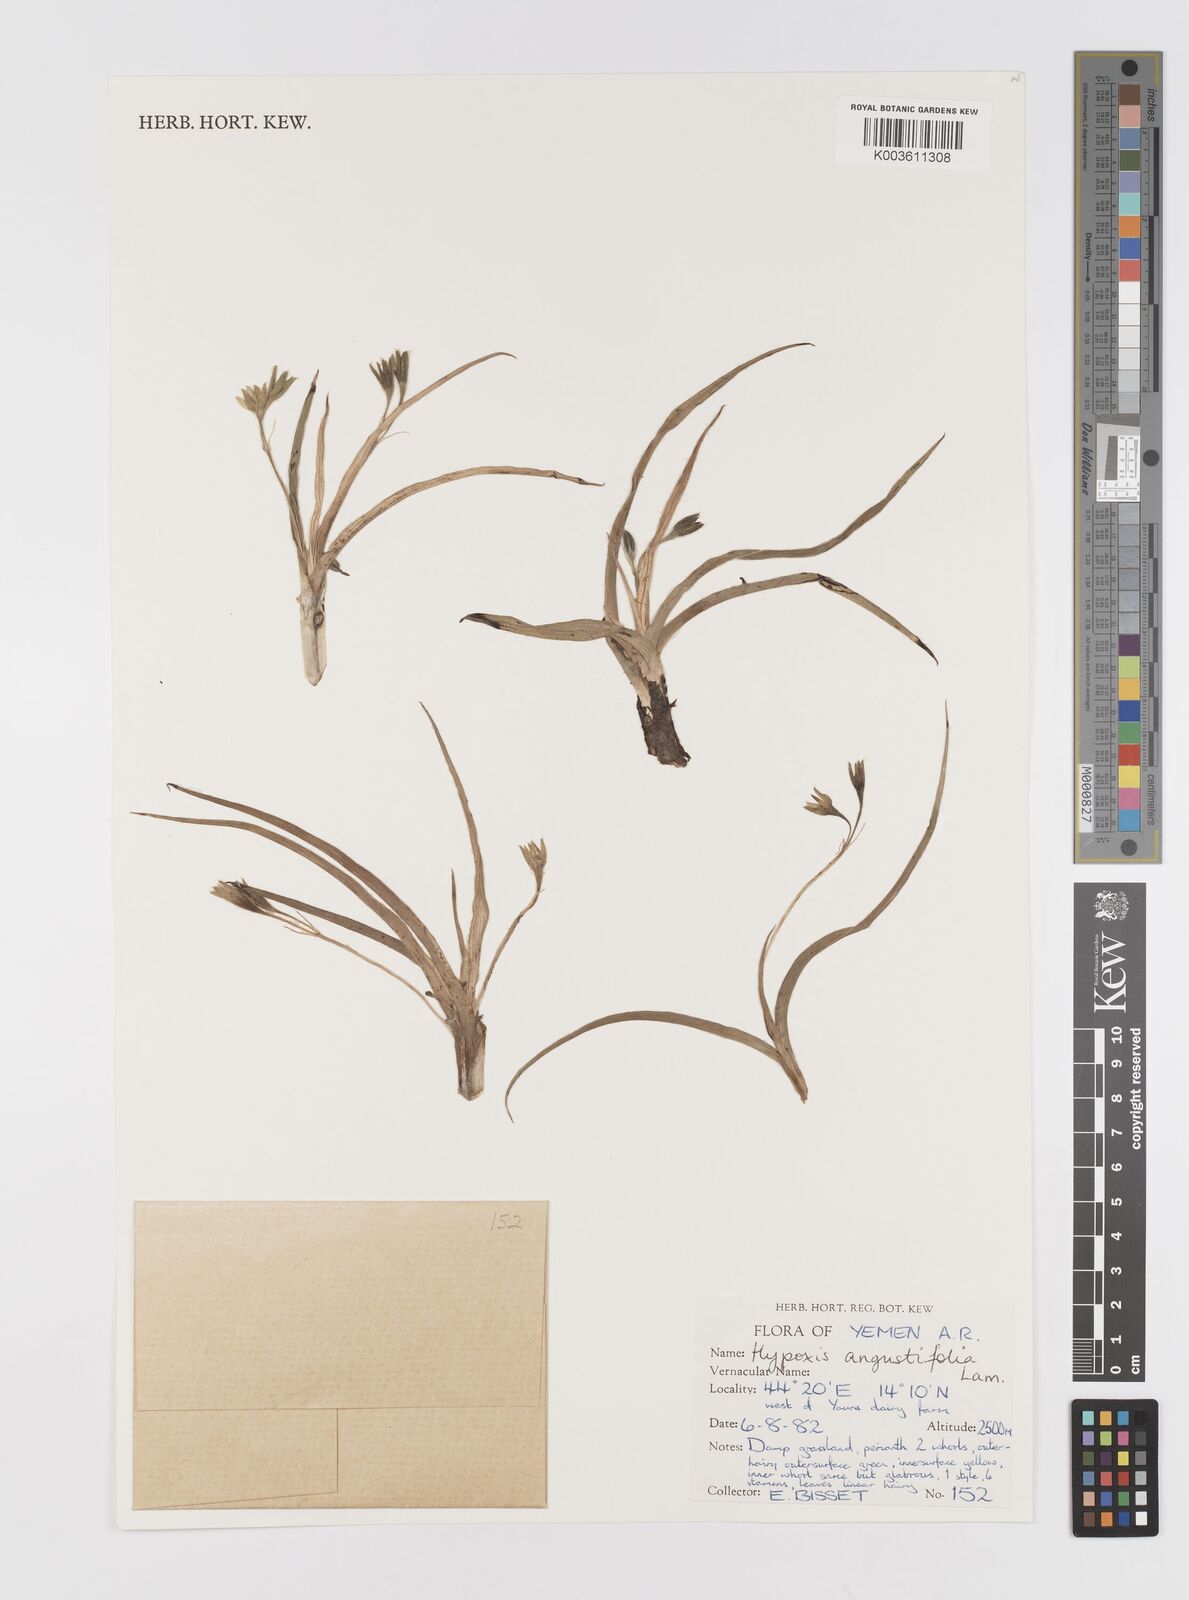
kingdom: Plantae
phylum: Tracheophyta
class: Liliopsida
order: Asparagales
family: Hypoxidaceae
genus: Hypoxis
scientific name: Hypoxis angustifolia
